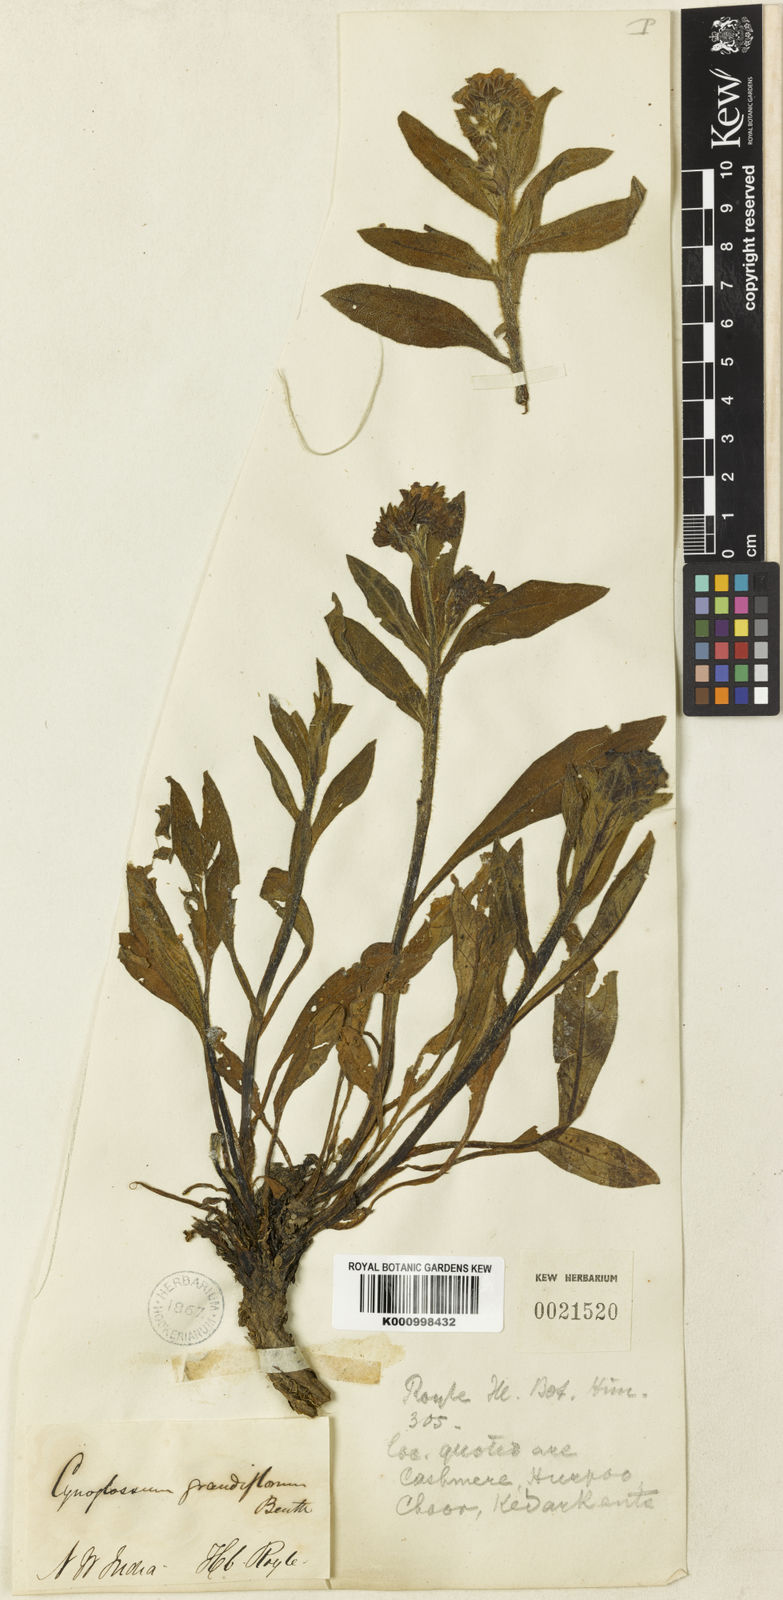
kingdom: Plantae
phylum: Tracheophyta
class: Magnoliopsida
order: Boraginales
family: Boraginaceae
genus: Lindelofia
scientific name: Lindelofia longiflora
